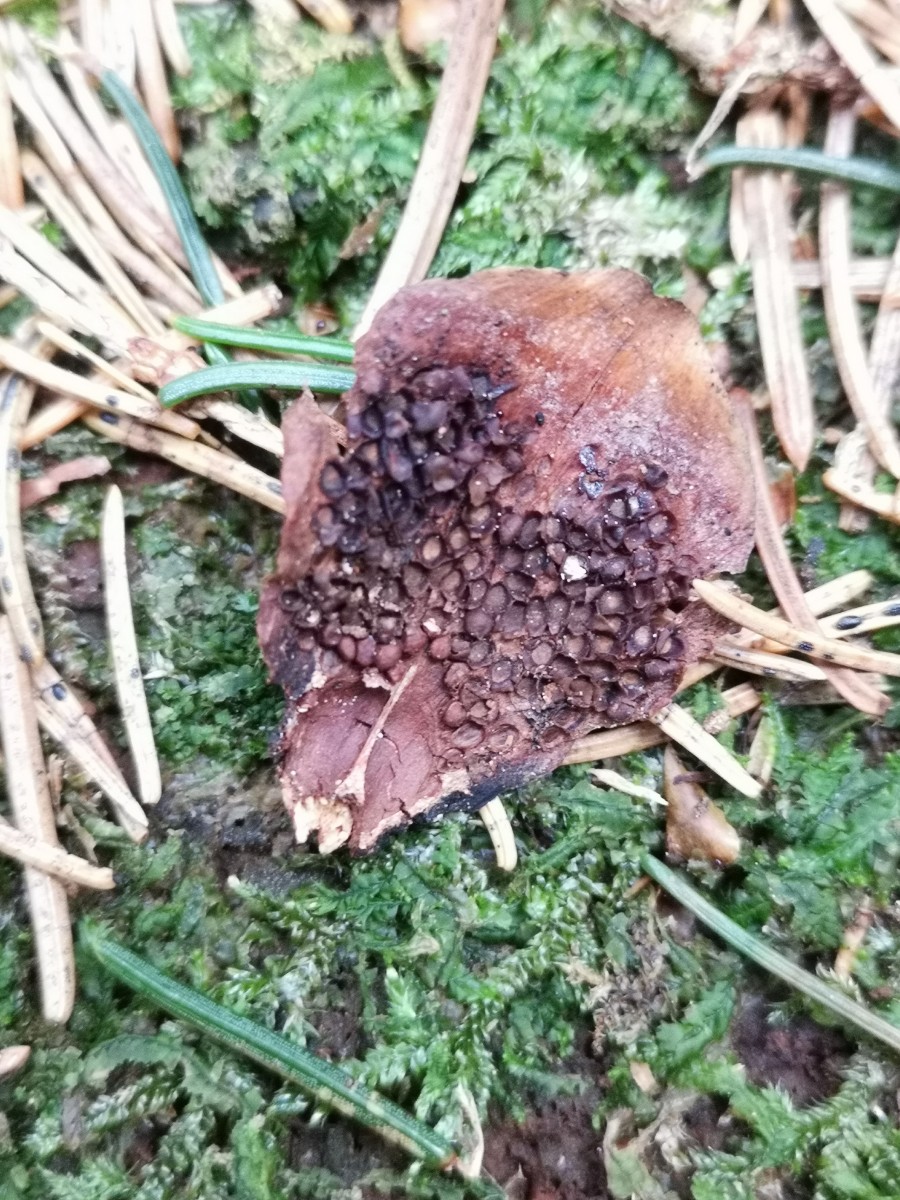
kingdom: Fungi
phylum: Basidiomycota
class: Pucciniomycetes
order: Pucciniales
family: Pucciniastraceae
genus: Thekopsora
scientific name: Thekopsora areolata
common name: grankogle-nålerust
